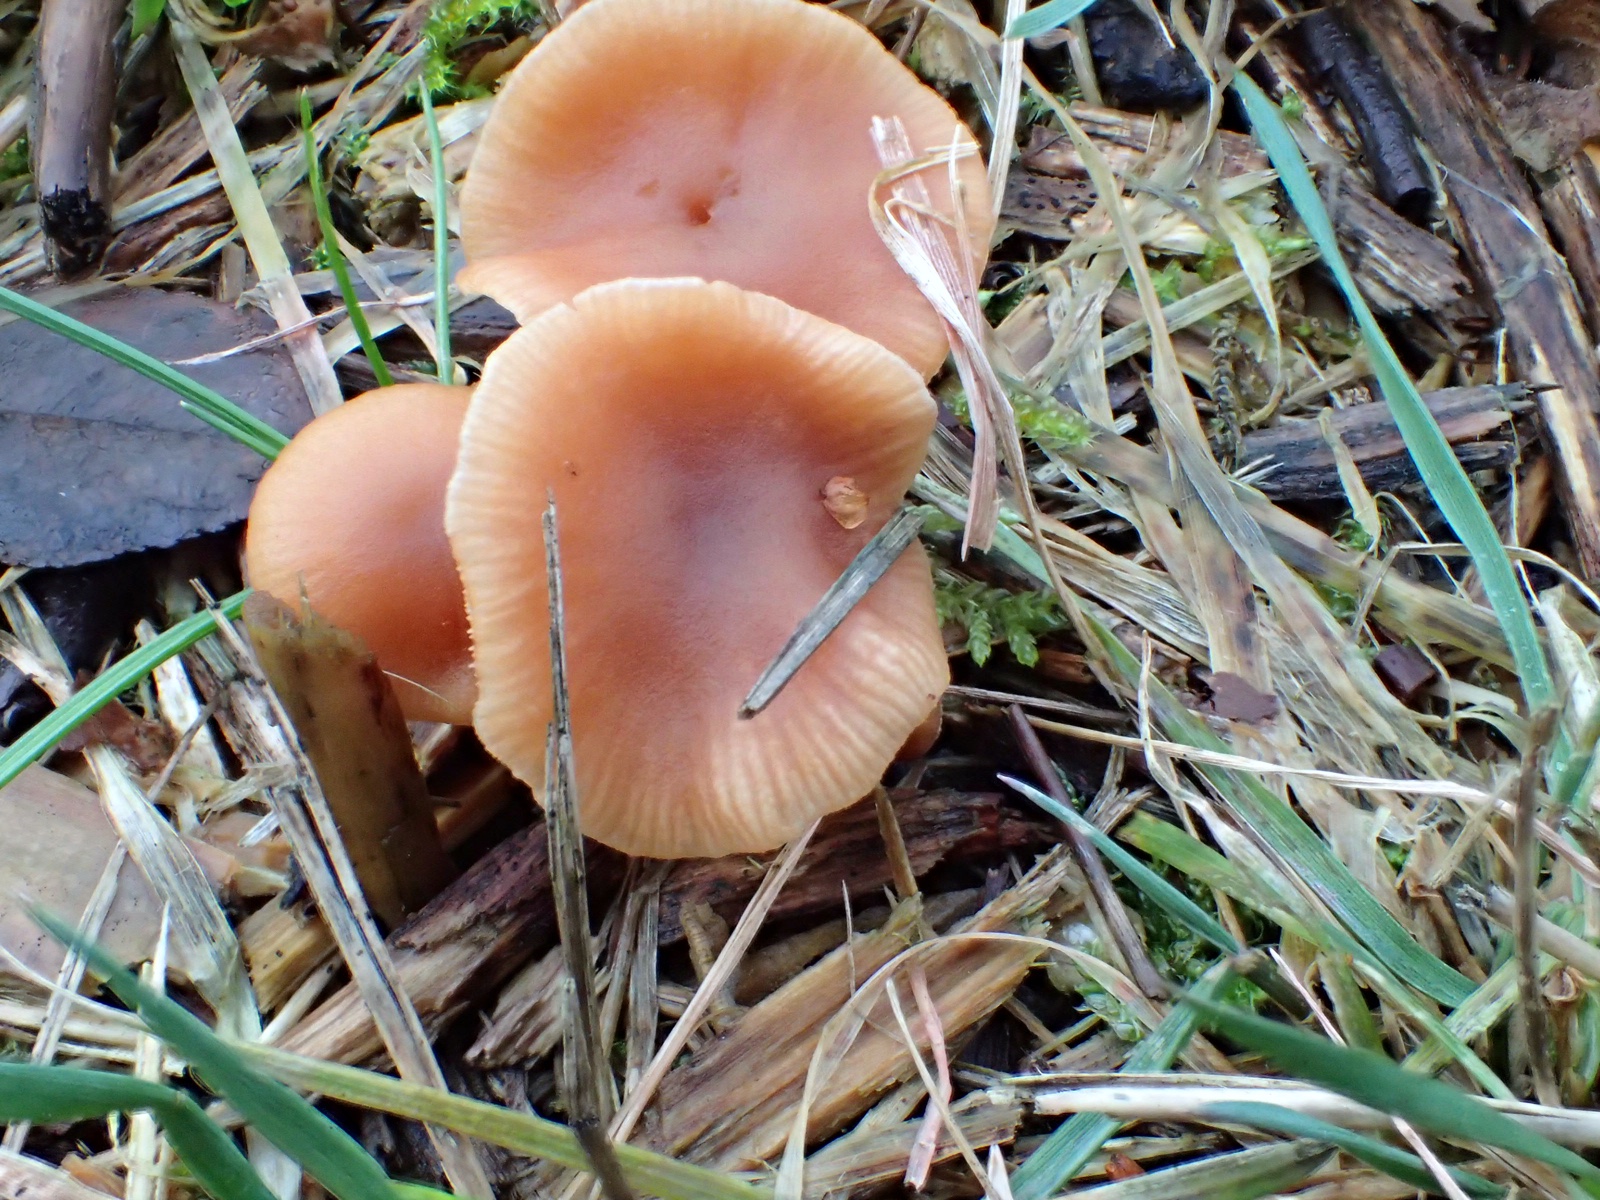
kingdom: Fungi
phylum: Basidiomycota
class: Agaricomycetes
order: Agaricales
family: Tubariaceae
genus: Tubaria
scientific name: Tubaria furfuracea
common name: kliddet fnughat
